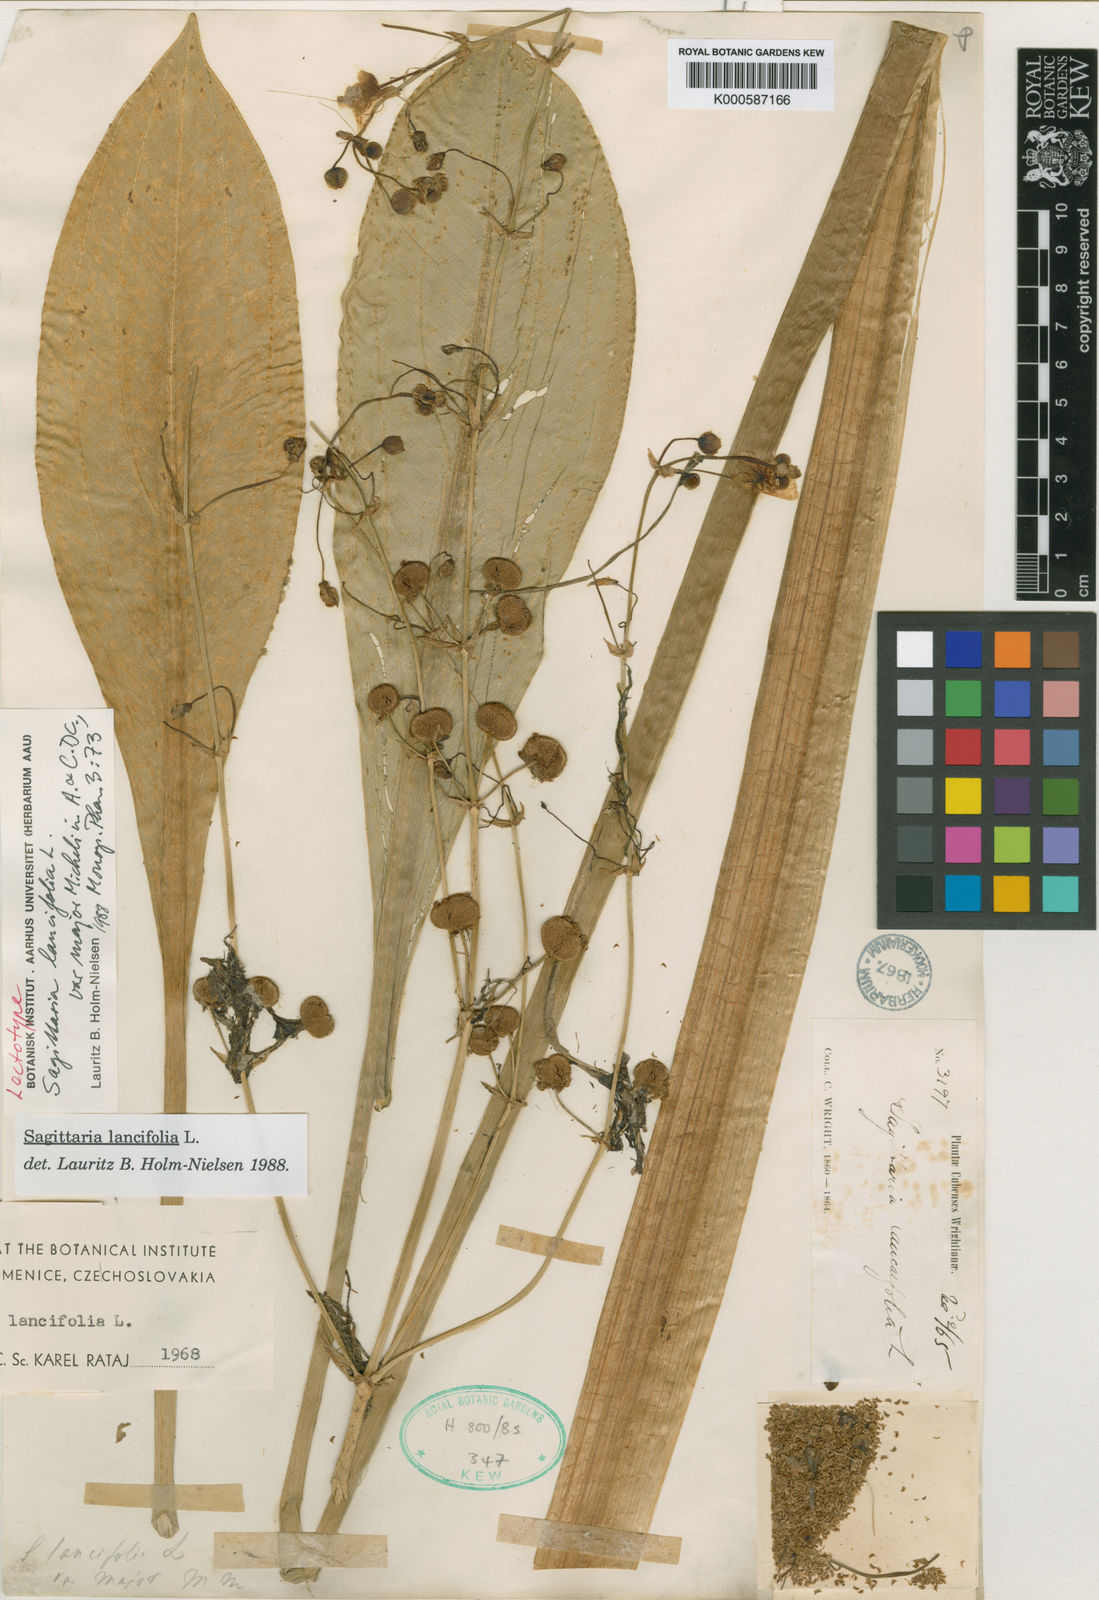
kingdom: Plantae
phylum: Tracheophyta
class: Liliopsida
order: Alismatales
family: Alismataceae
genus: Sagittaria
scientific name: Sagittaria lancifolia
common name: Lance-leaf arrowhead
